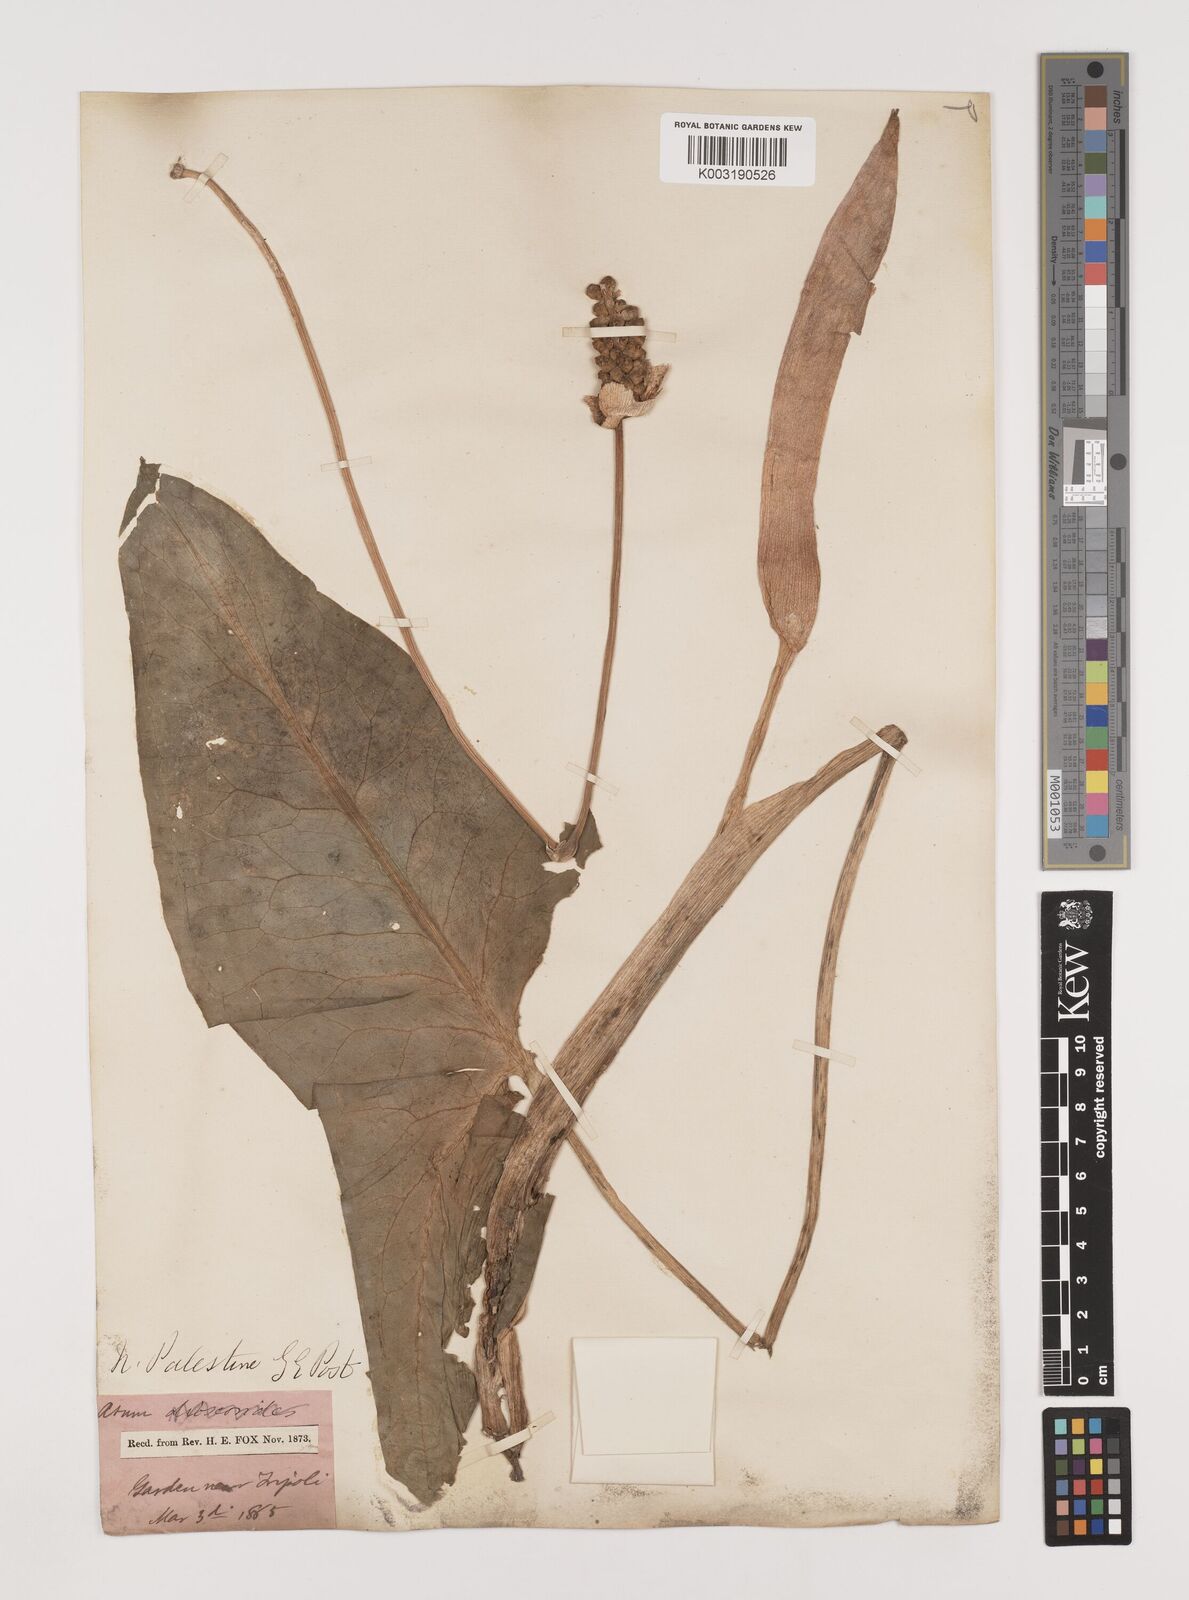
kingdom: Plantae
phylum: Tracheophyta
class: Liliopsida
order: Alismatales
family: Araceae
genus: Arum
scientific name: Arum dioscoridis
